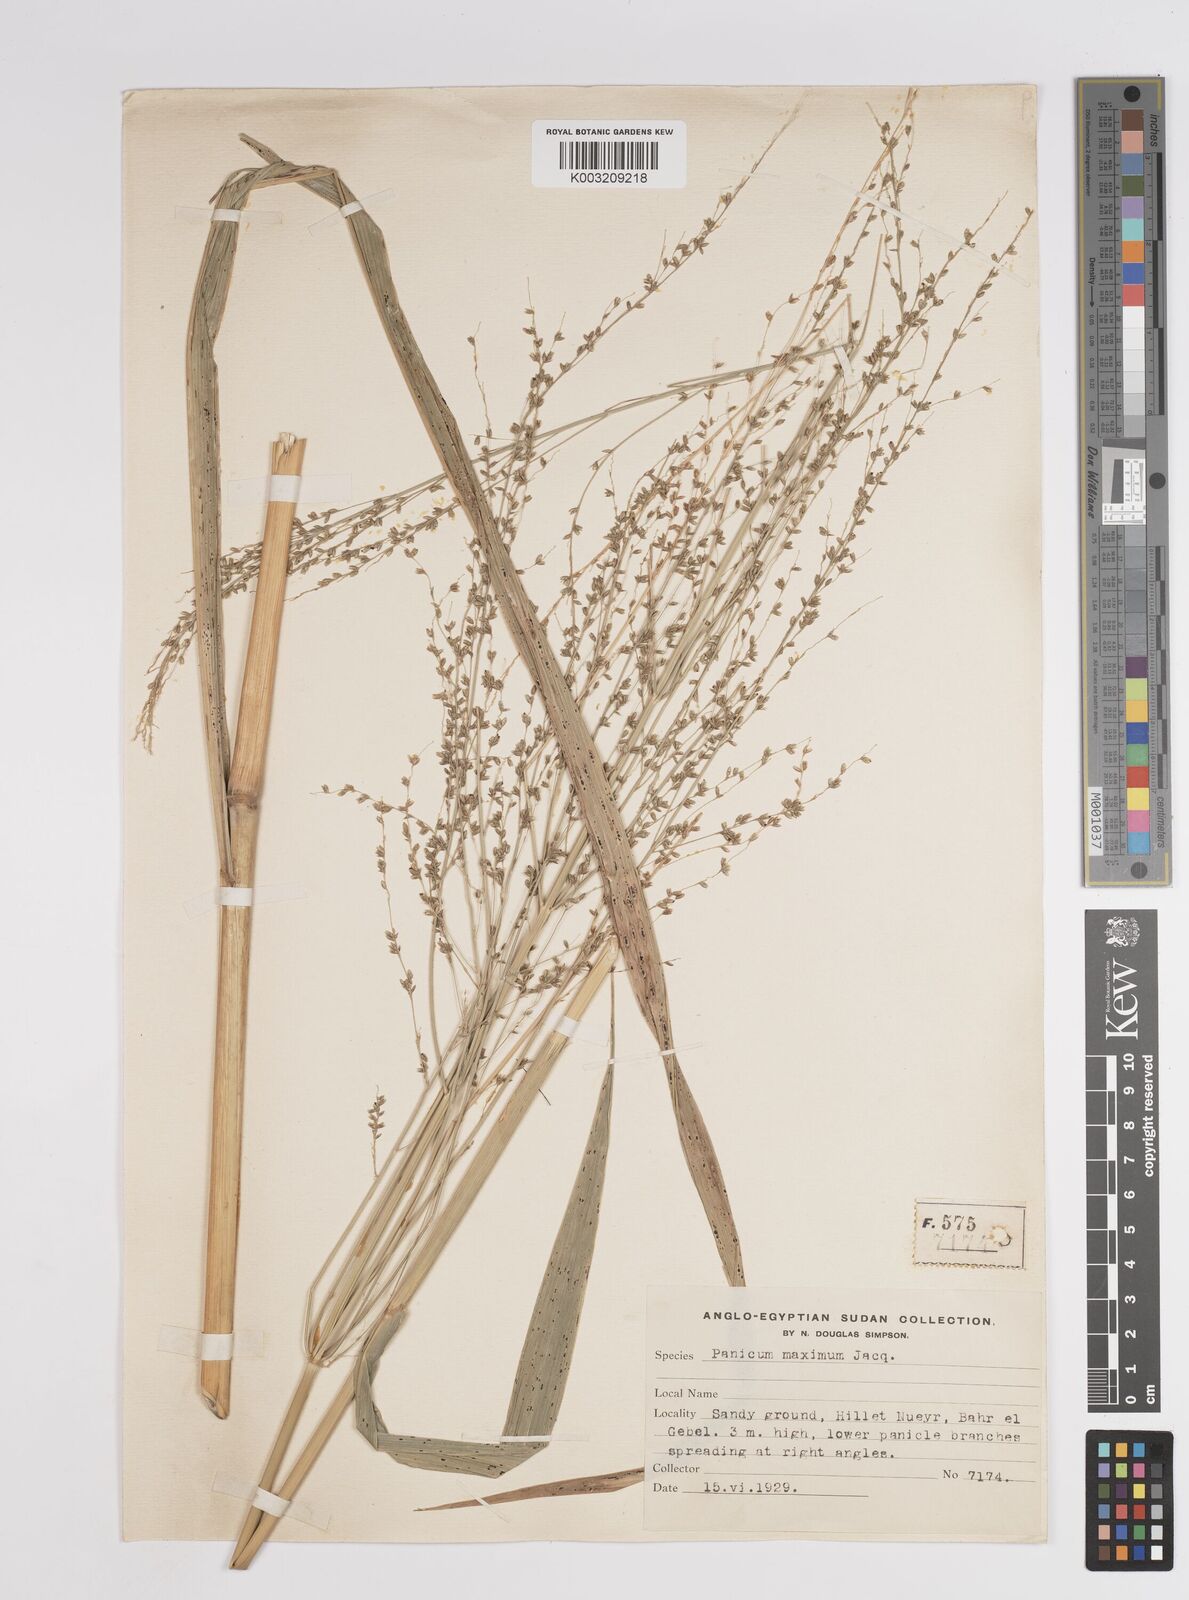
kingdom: Plantae
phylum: Tracheophyta
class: Liliopsida
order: Poales
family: Poaceae
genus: Megathyrsus
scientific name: Megathyrsus maximus
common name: Guineagrass
